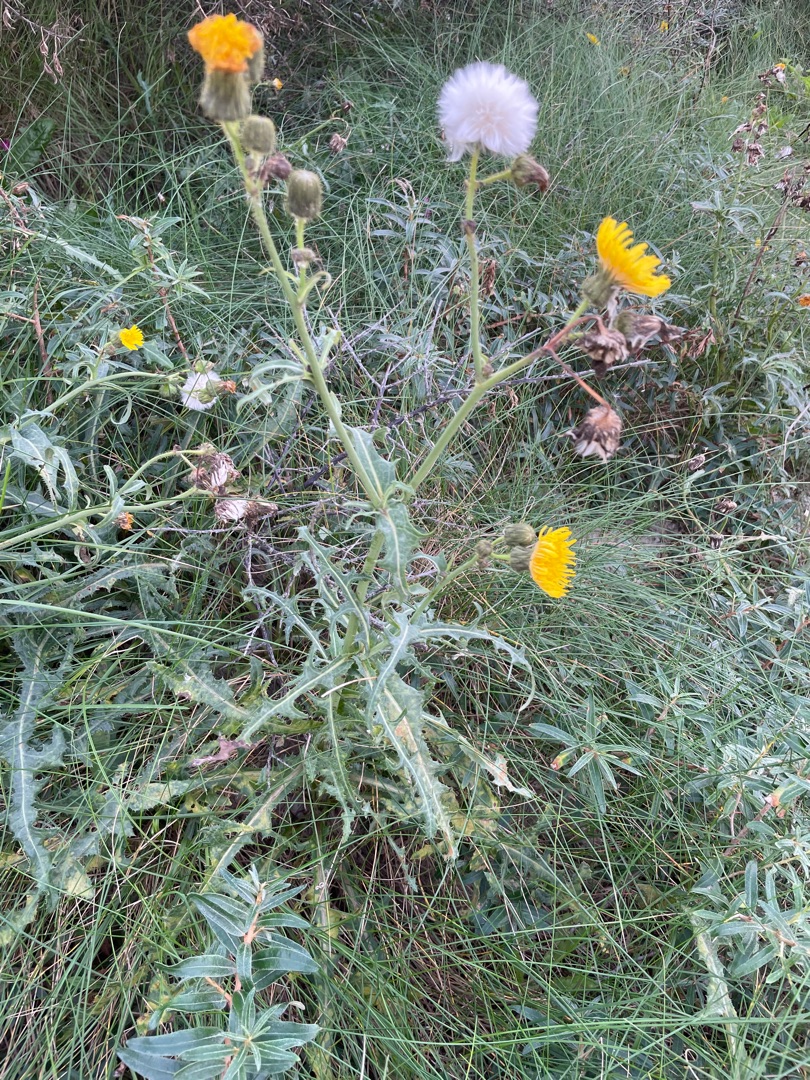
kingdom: Plantae
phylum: Tracheophyta
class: Magnoliopsida
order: Asterales
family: Asteraceae
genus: Sonchus
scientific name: Sonchus arvensis
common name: Ager-svinemælk
